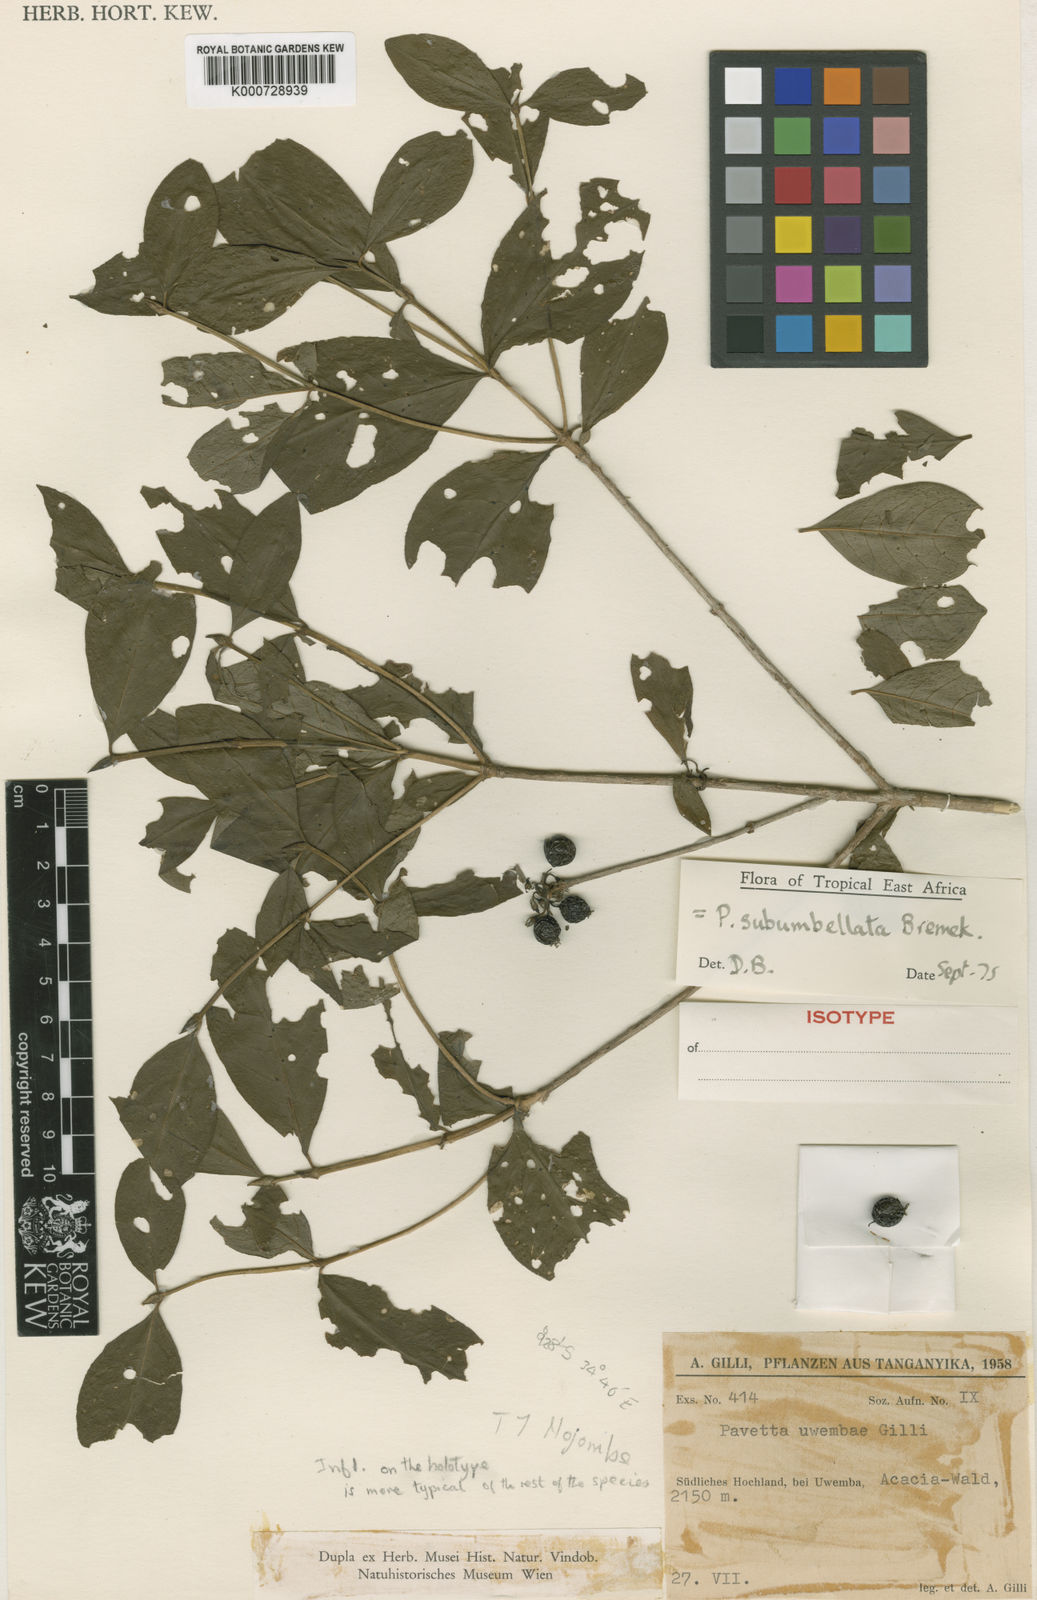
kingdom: Plantae
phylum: Tracheophyta
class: Magnoliopsida
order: Gentianales
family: Rubiaceae
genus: Pavetta
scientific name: Pavetta subumbellata
